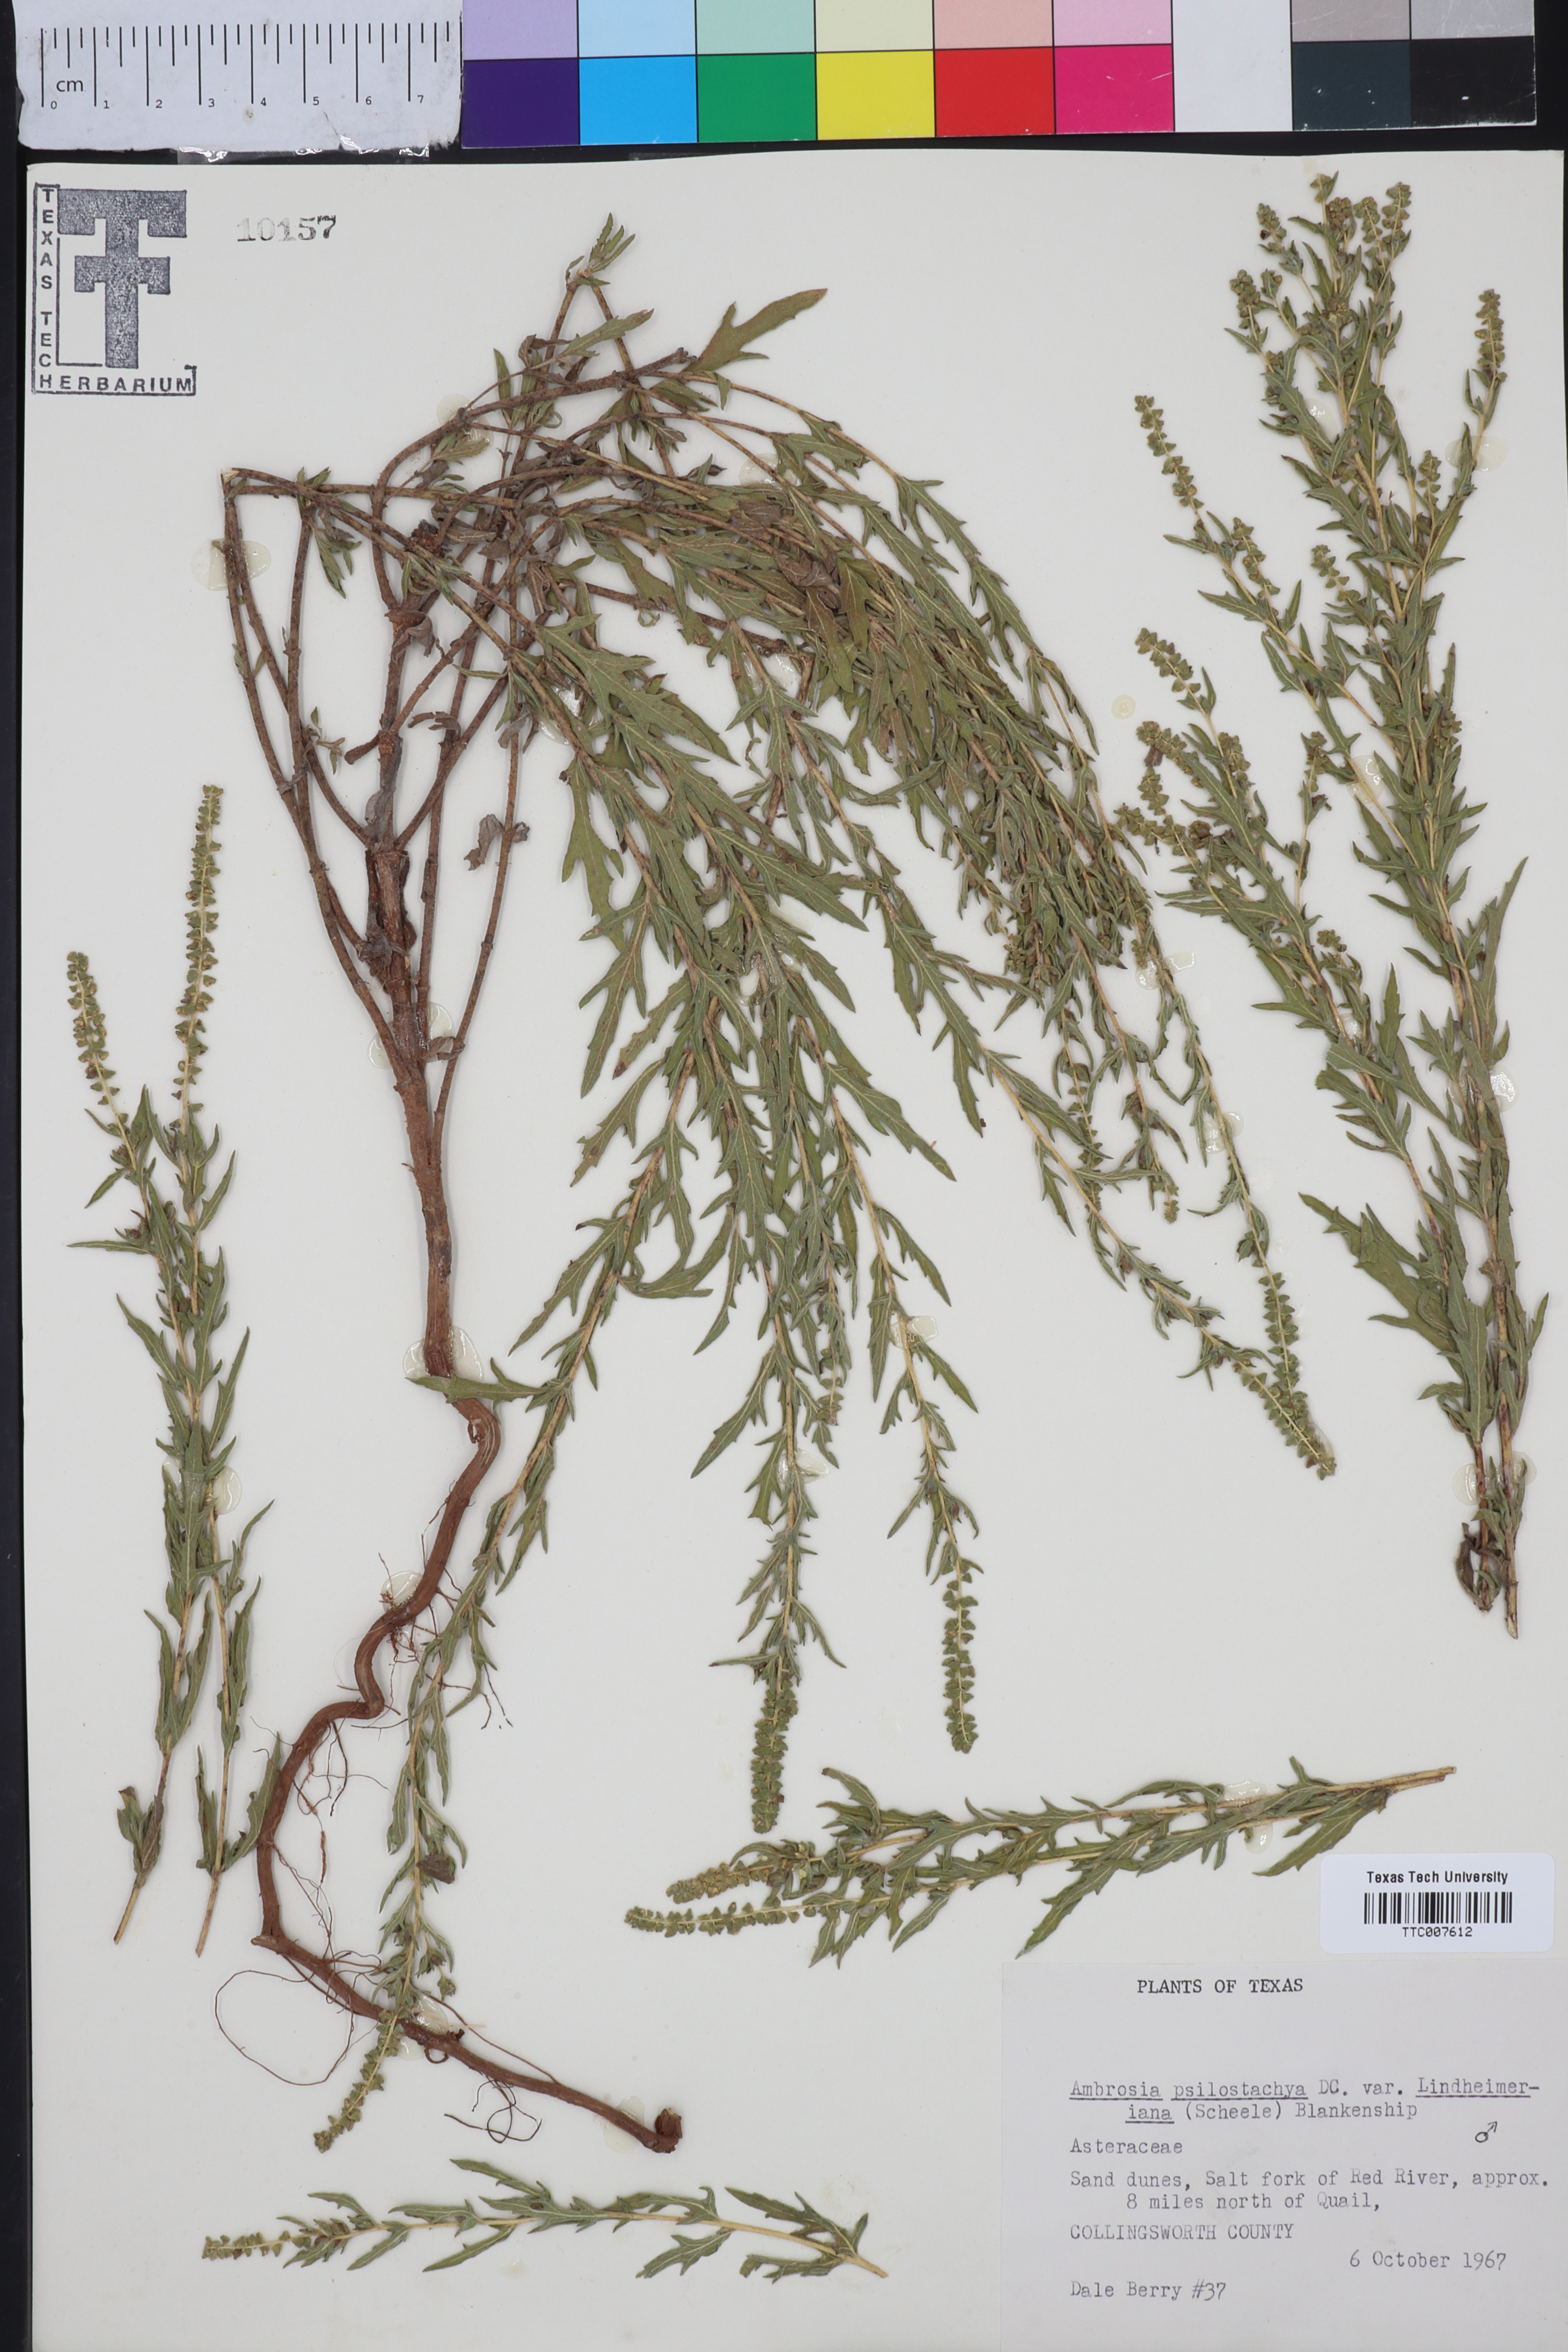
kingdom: Plantae
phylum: Tracheophyta
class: Magnoliopsida
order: Asterales
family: Asteraceae
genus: Ambrosia
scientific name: Ambrosia psilostachya
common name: Perennial ragweed
